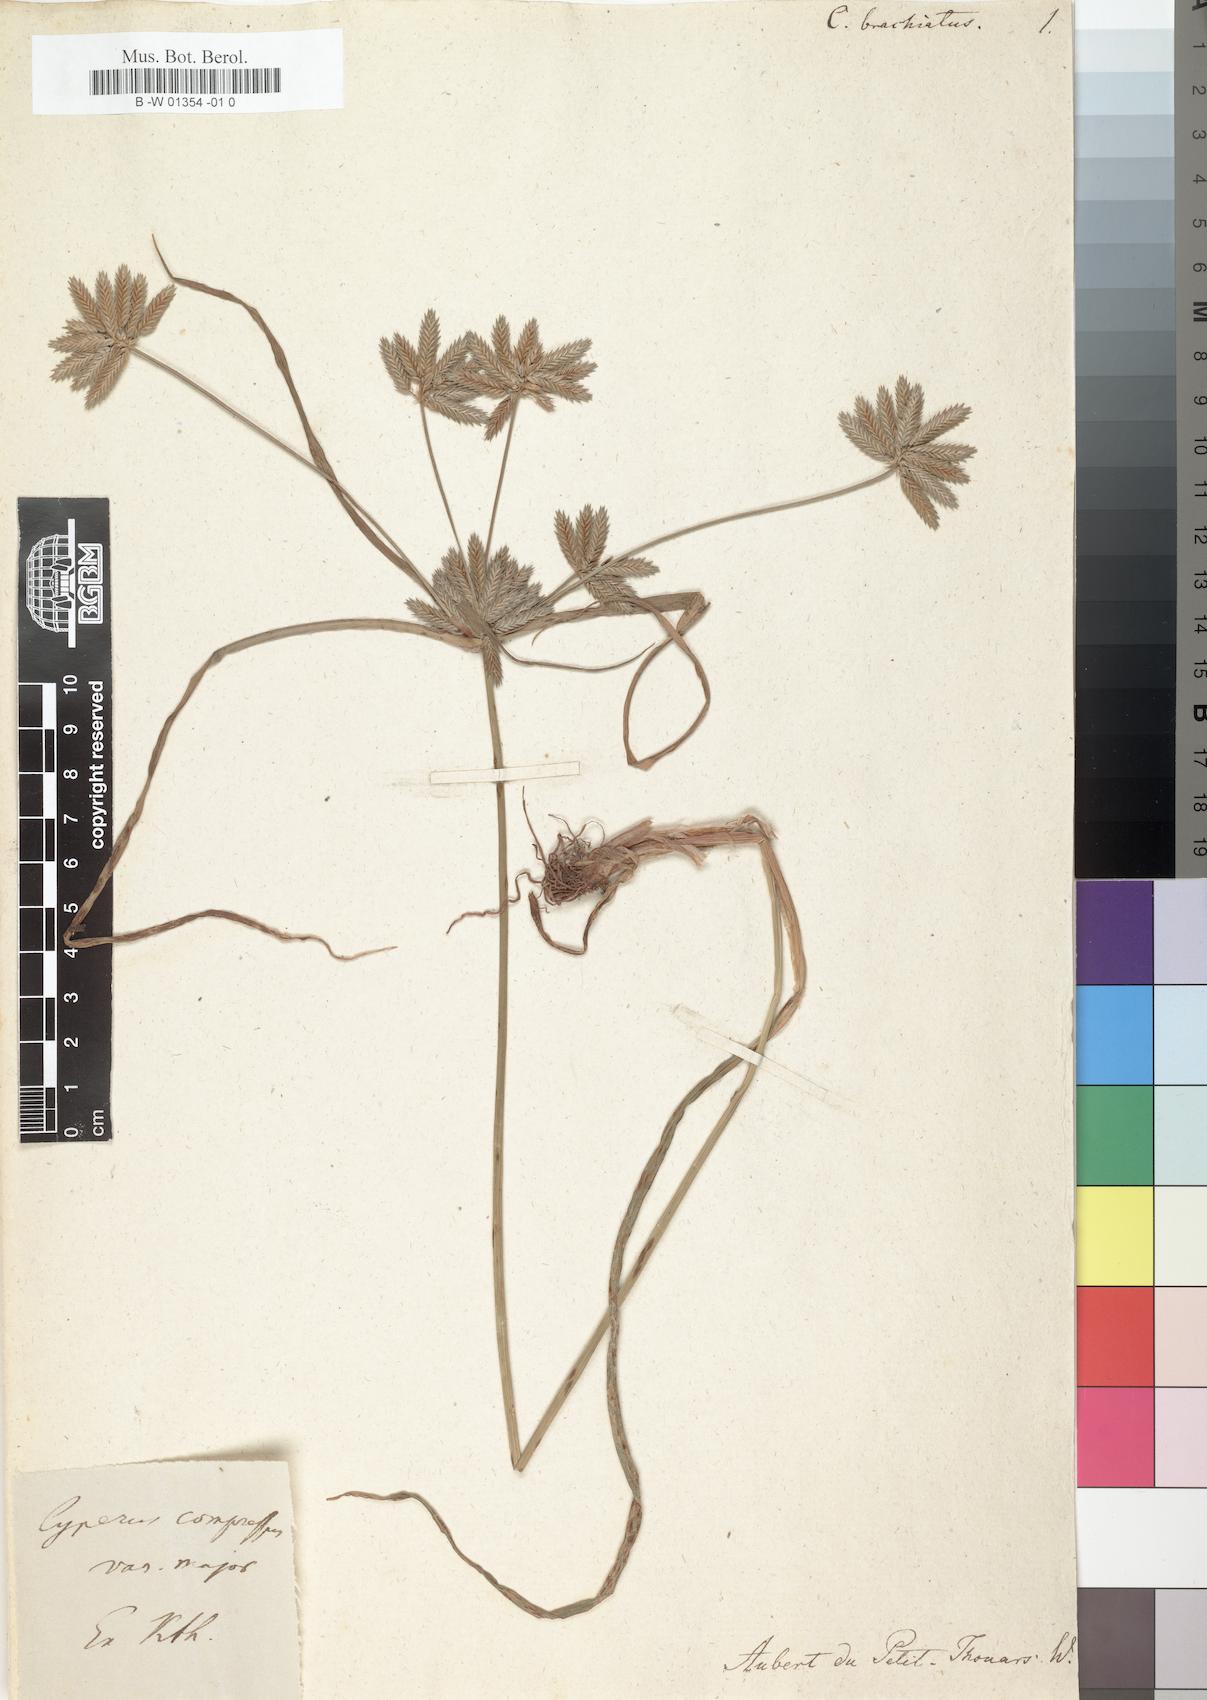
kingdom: Plantae
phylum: Tracheophyta
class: Liliopsida
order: Poales
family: Cyperaceae
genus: Cyperus
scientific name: Cyperus compressus
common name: Poorland flatsedge
